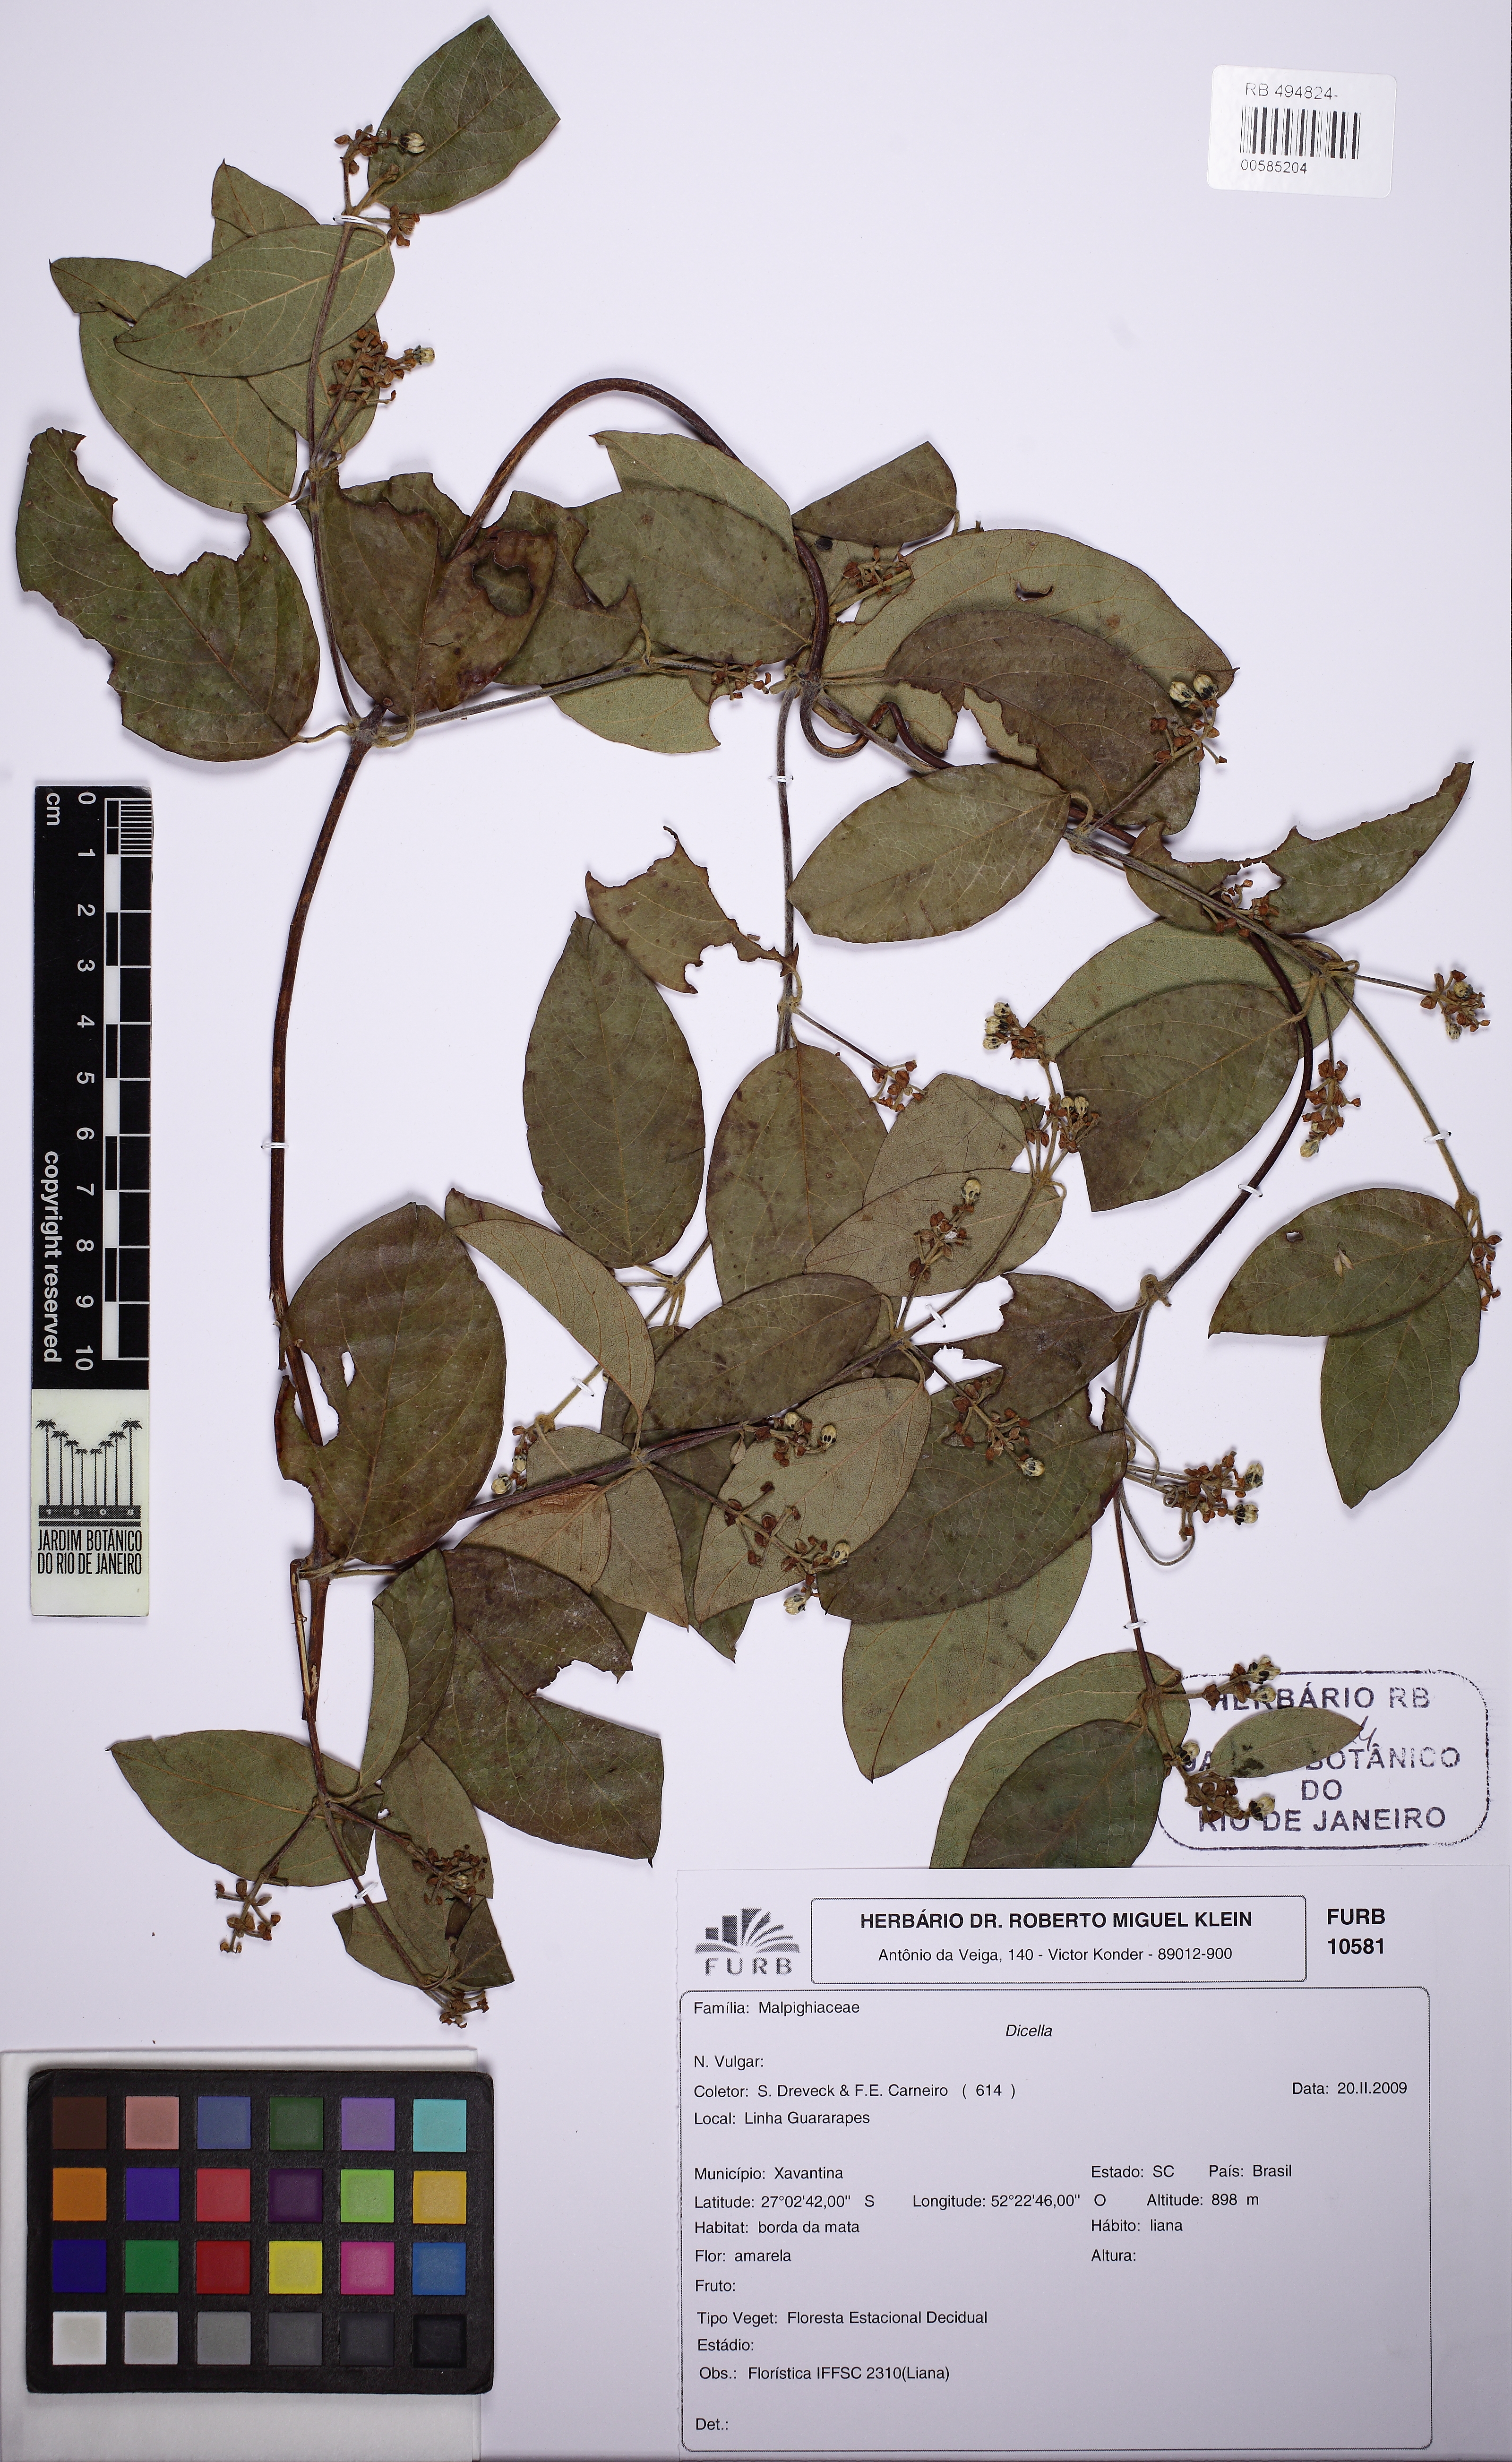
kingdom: Plantae
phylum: Tracheophyta
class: Magnoliopsida
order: Malpighiales
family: Malpighiaceae
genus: Dicella
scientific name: Dicella
